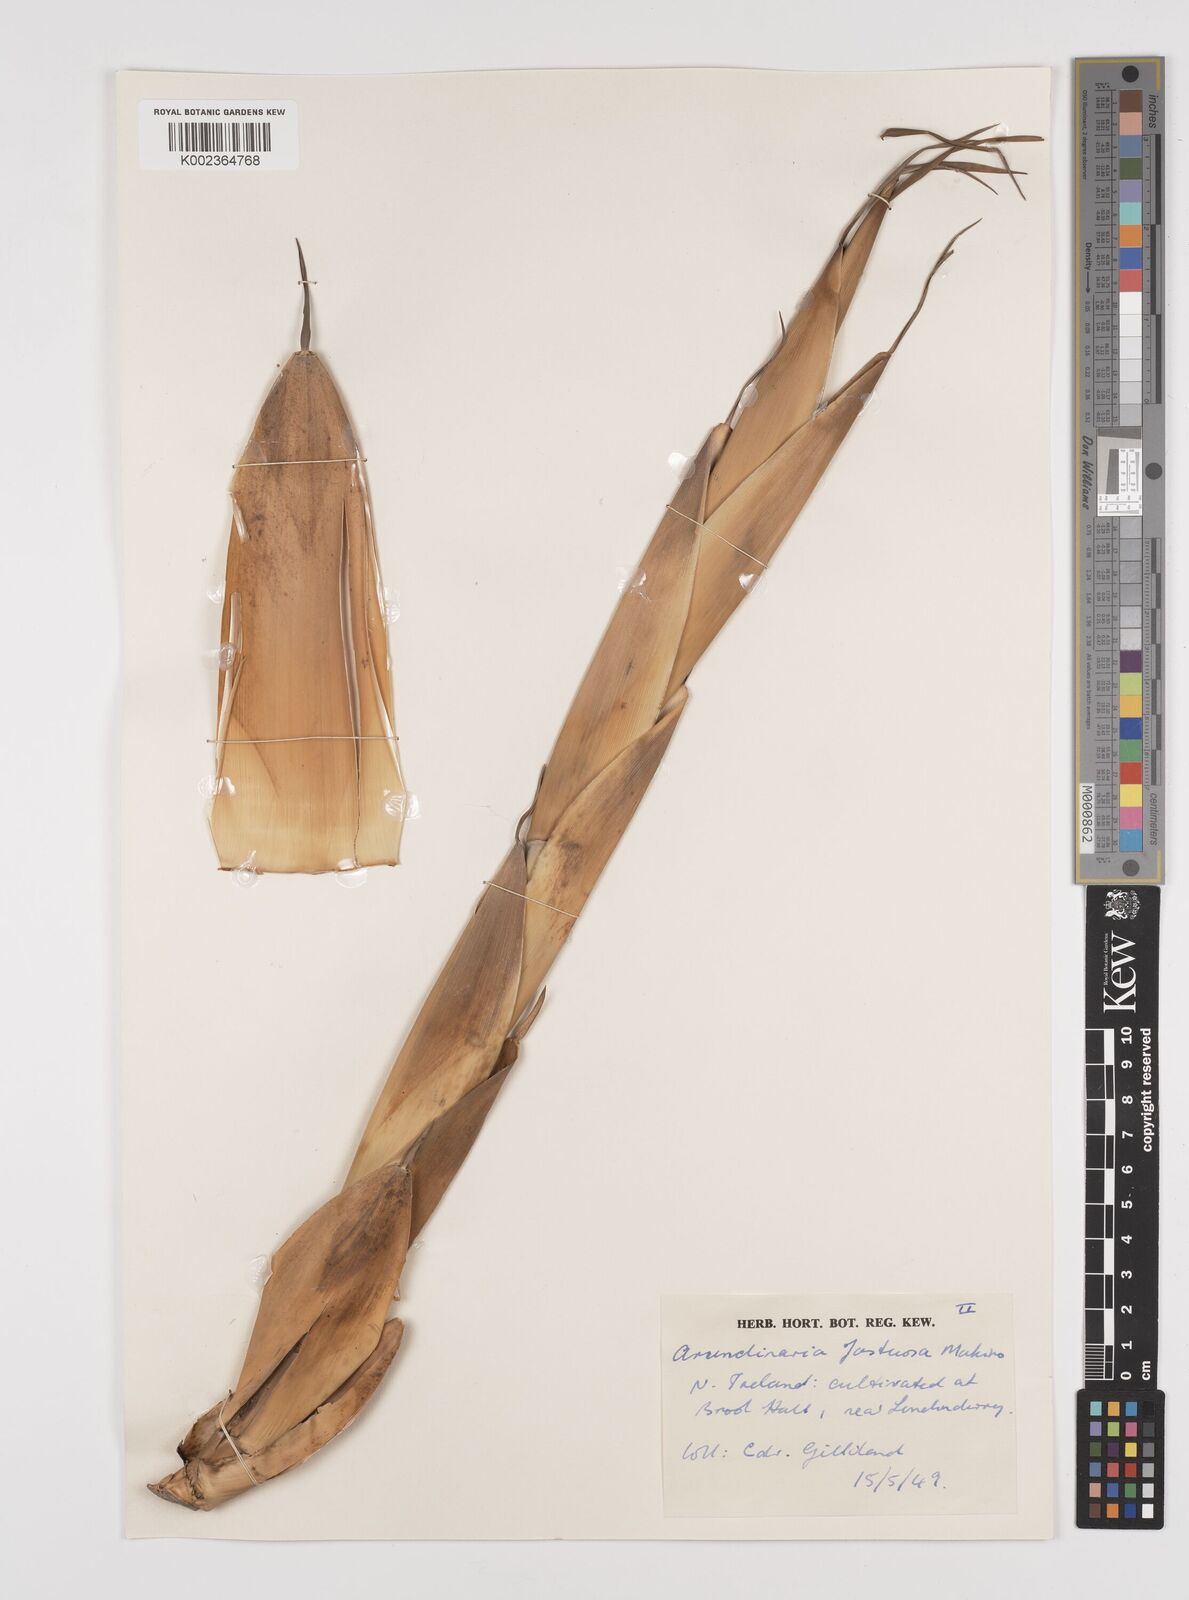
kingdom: Plantae
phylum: Tracheophyta
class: Liliopsida
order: Poales
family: Poaceae
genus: Semiarundinaria
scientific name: Semiarundinaria fastuosa
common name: Narihira bamboo
